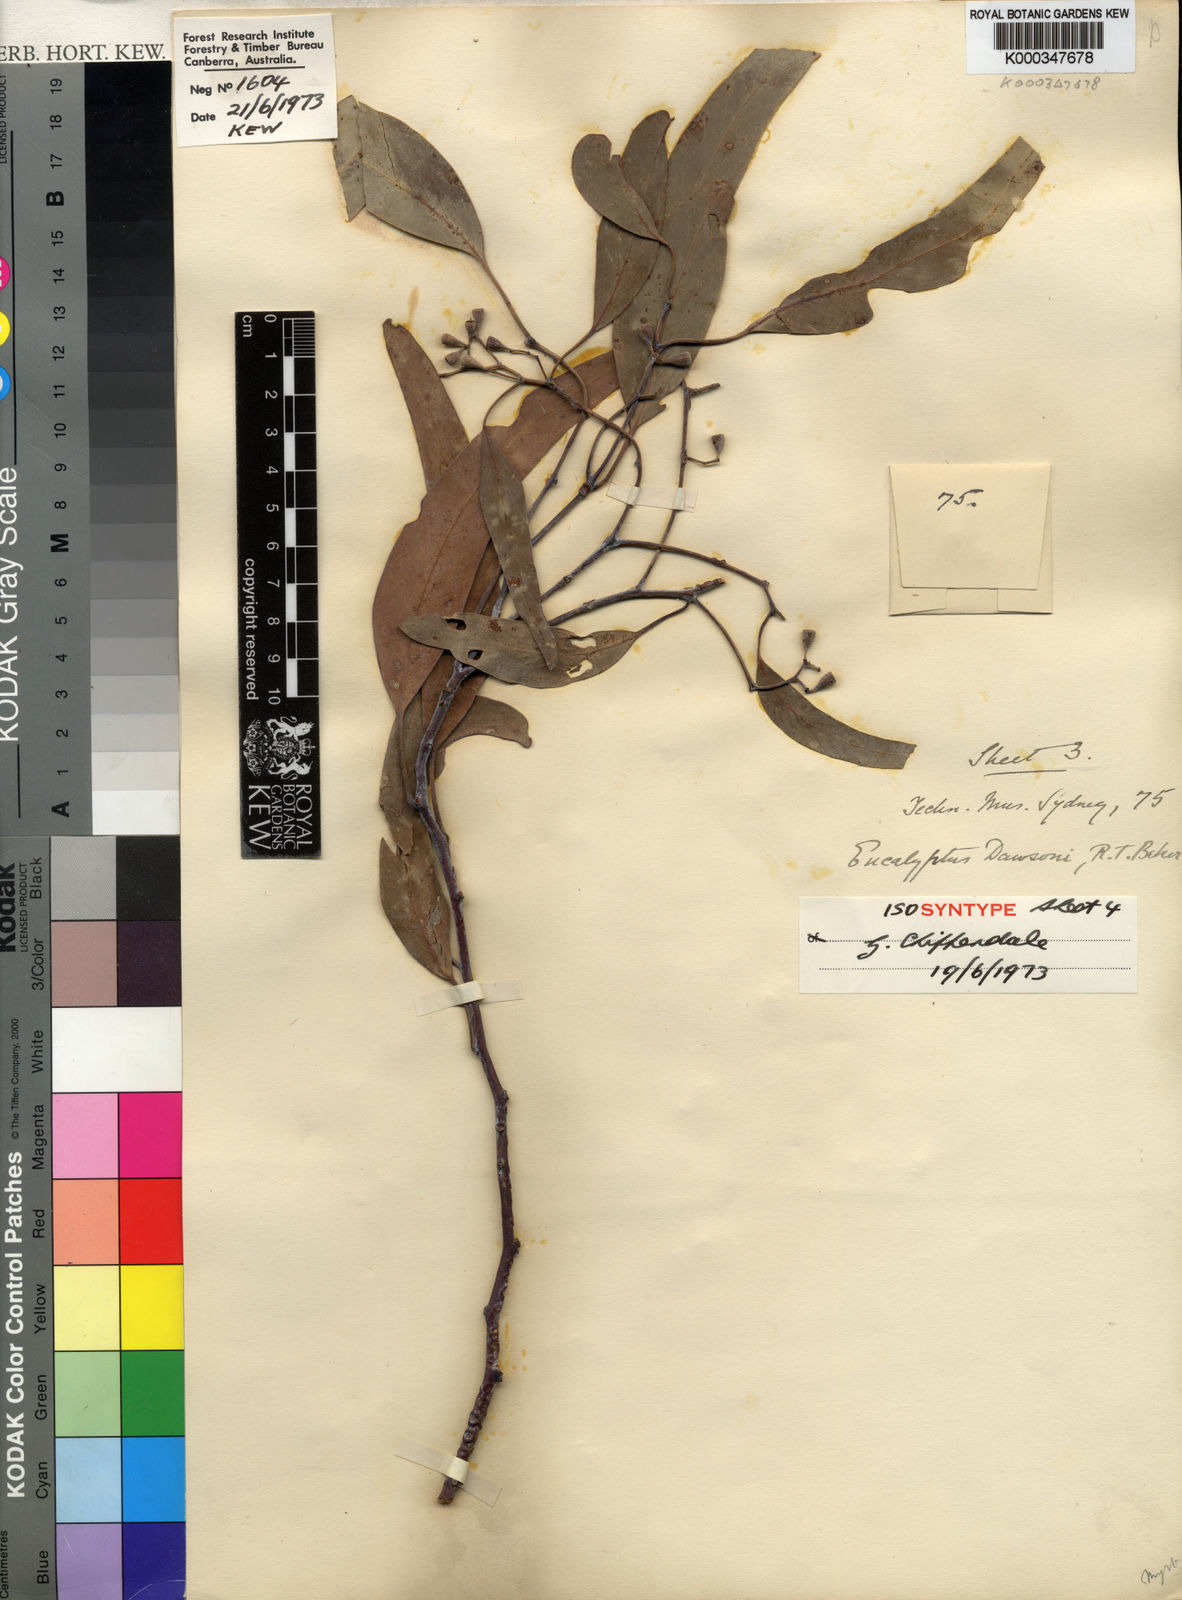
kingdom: Plantae
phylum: Tracheophyta
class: Magnoliopsida
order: Myrtales
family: Myrtaceae
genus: Eucalyptus
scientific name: Eucalyptus dawsonii
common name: Slaty-box
